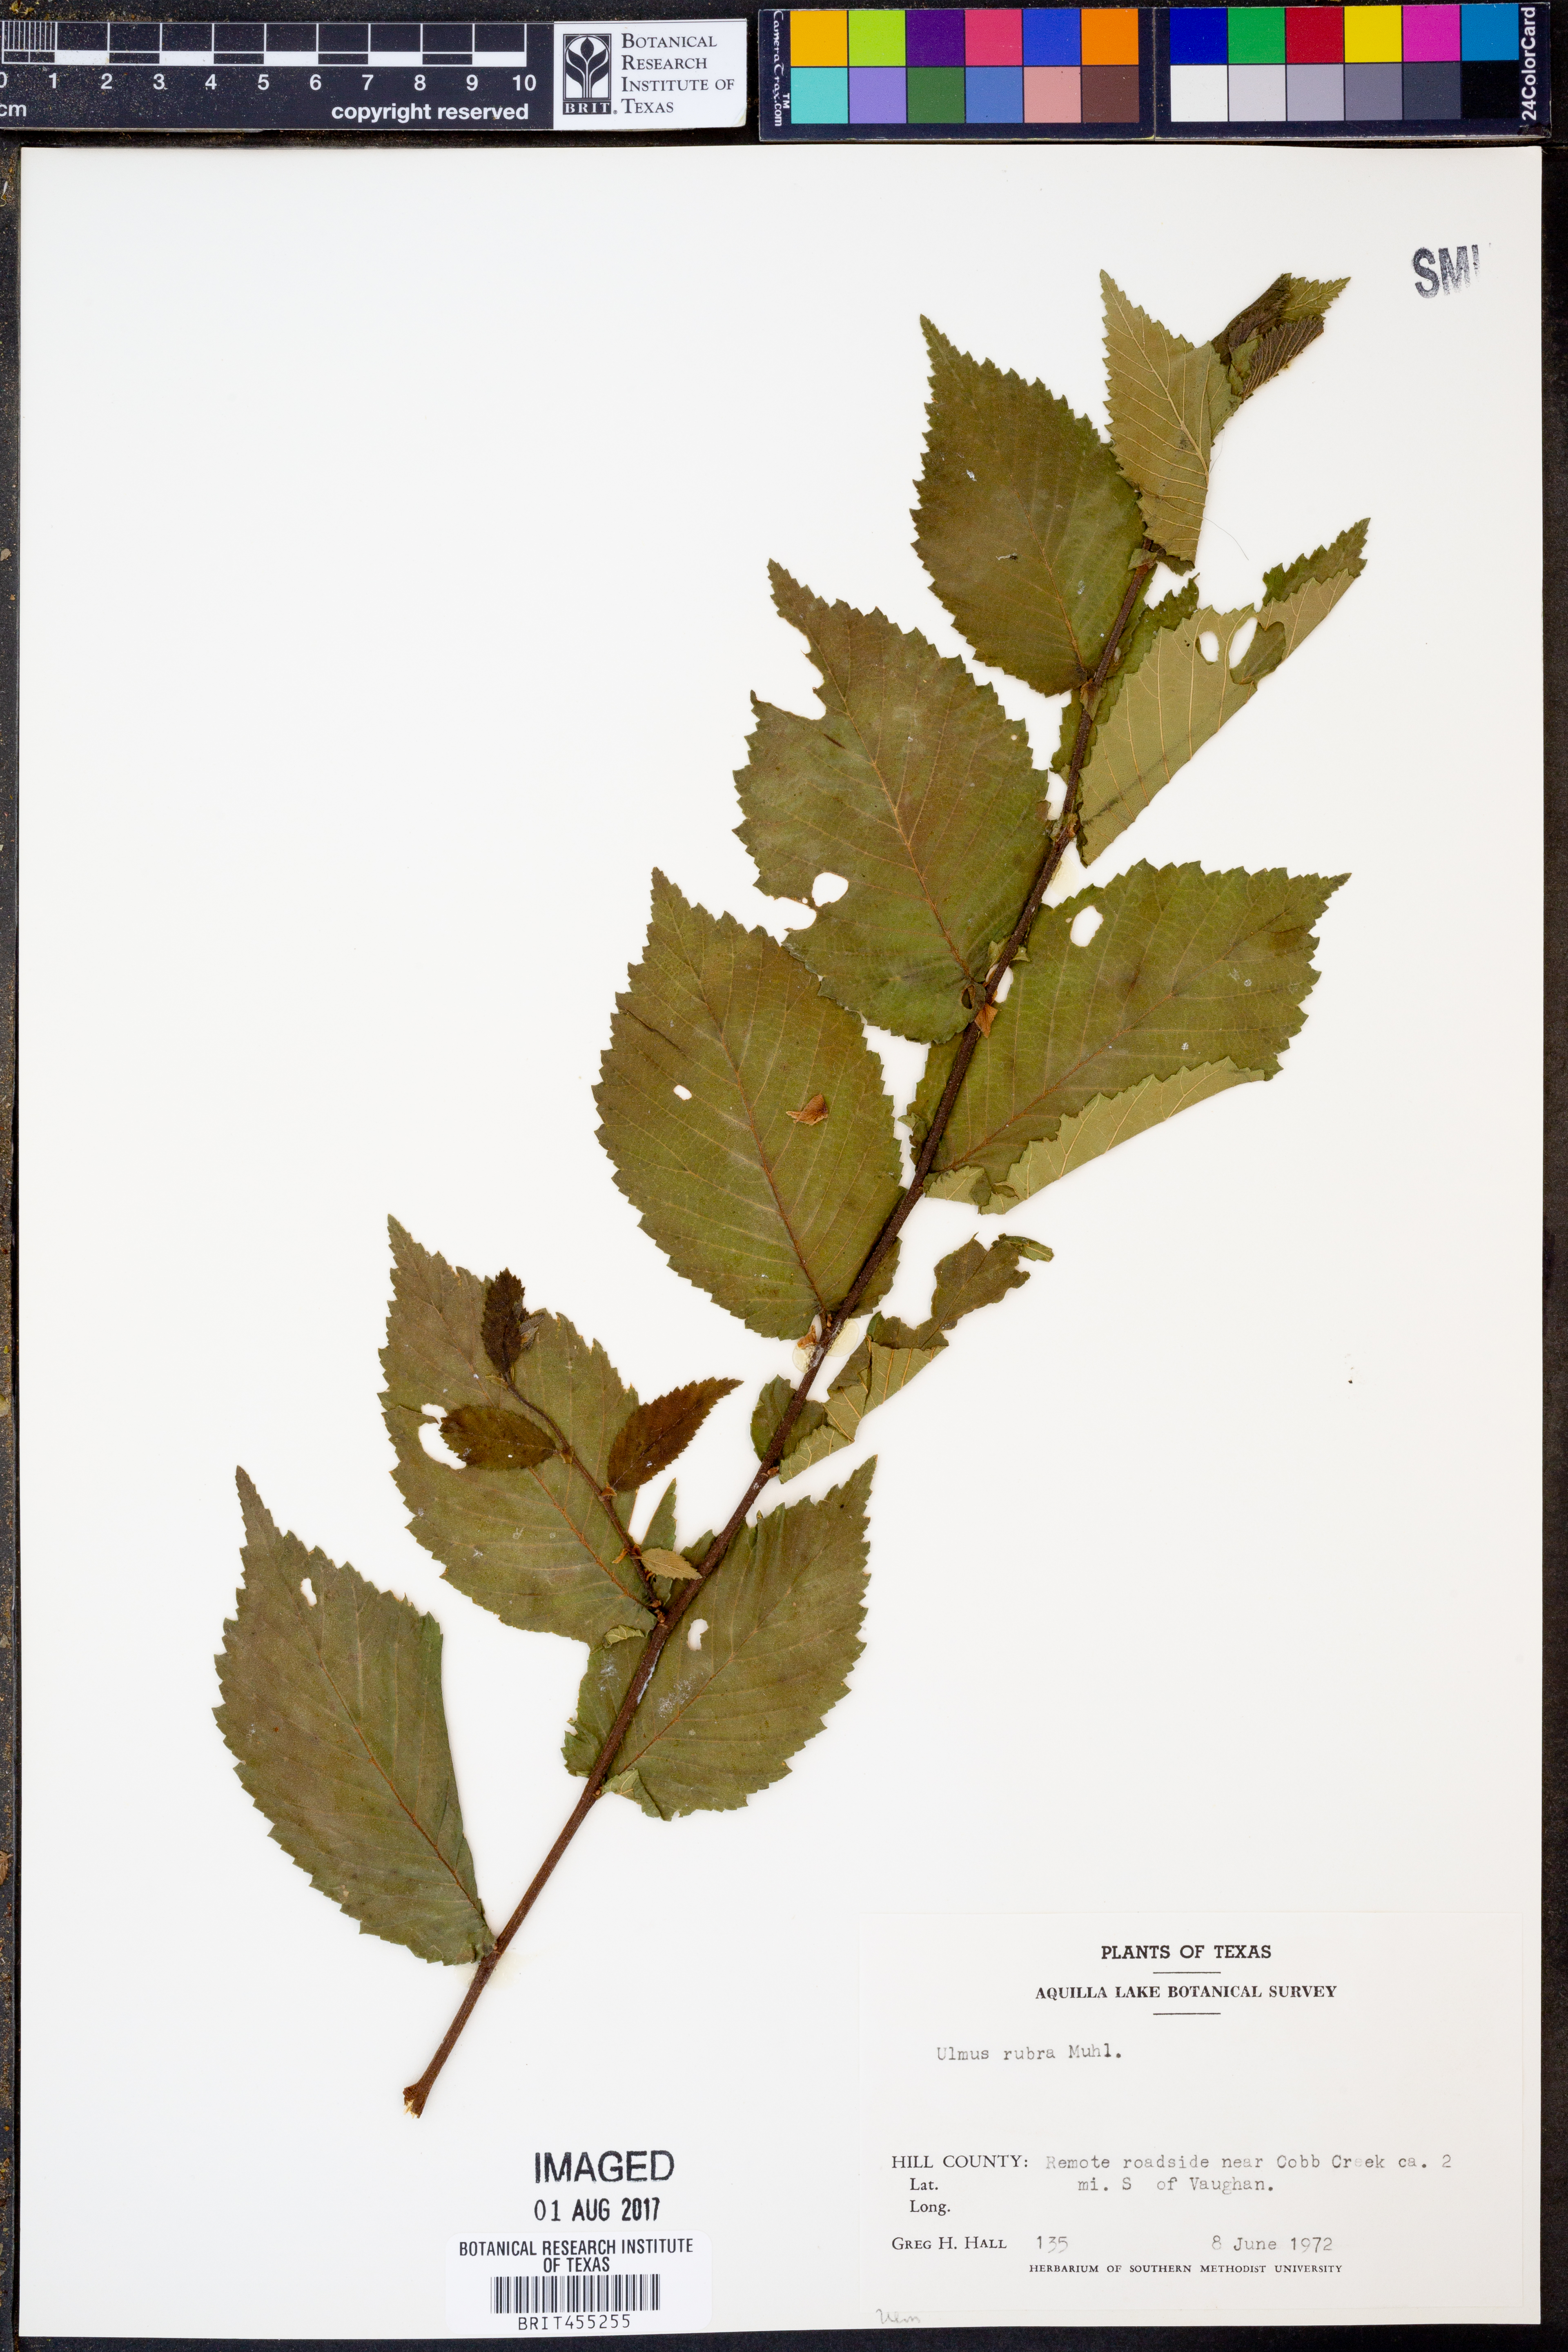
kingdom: Plantae
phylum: Tracheophyta
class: Magnoliopsida
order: Rosales
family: Ulmaceae
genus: Ulmus
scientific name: Ulmus rubra
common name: Slippery elm
